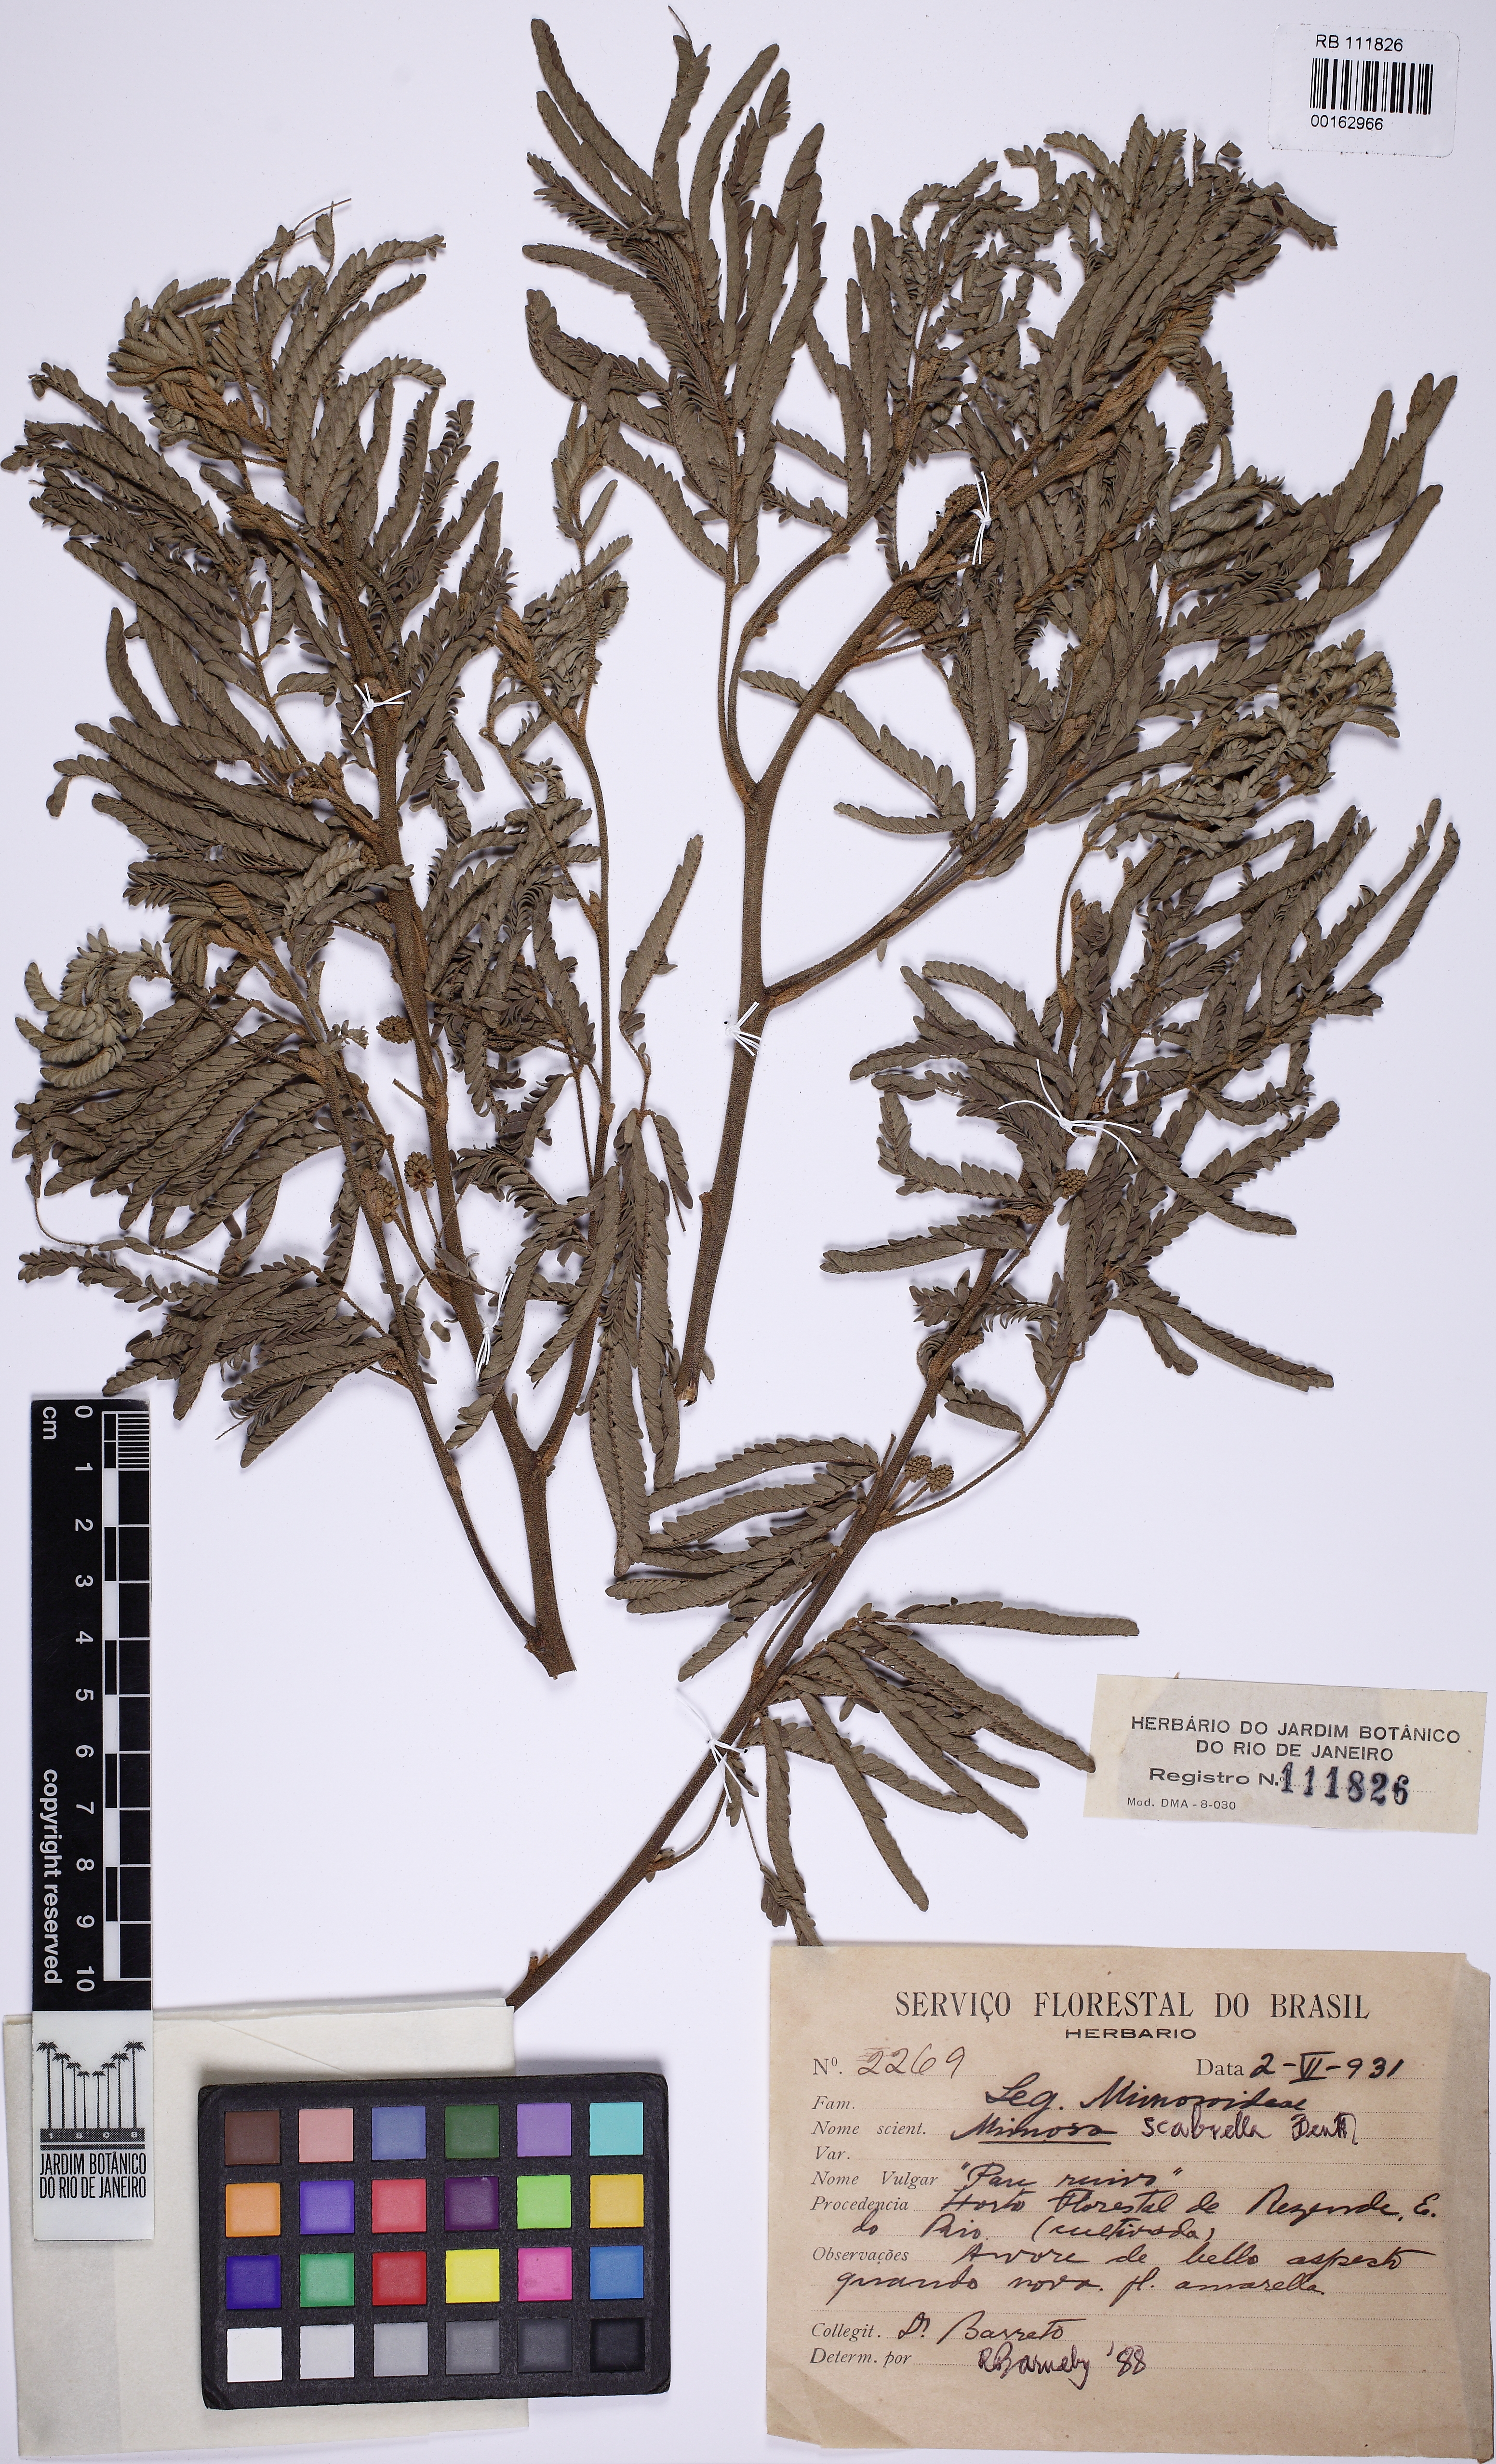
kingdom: Plantae
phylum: Tracheophyta
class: Magnoliopsida
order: Fabales
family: Fabaceae
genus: Mimosa
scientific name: Mimosa scabrella
